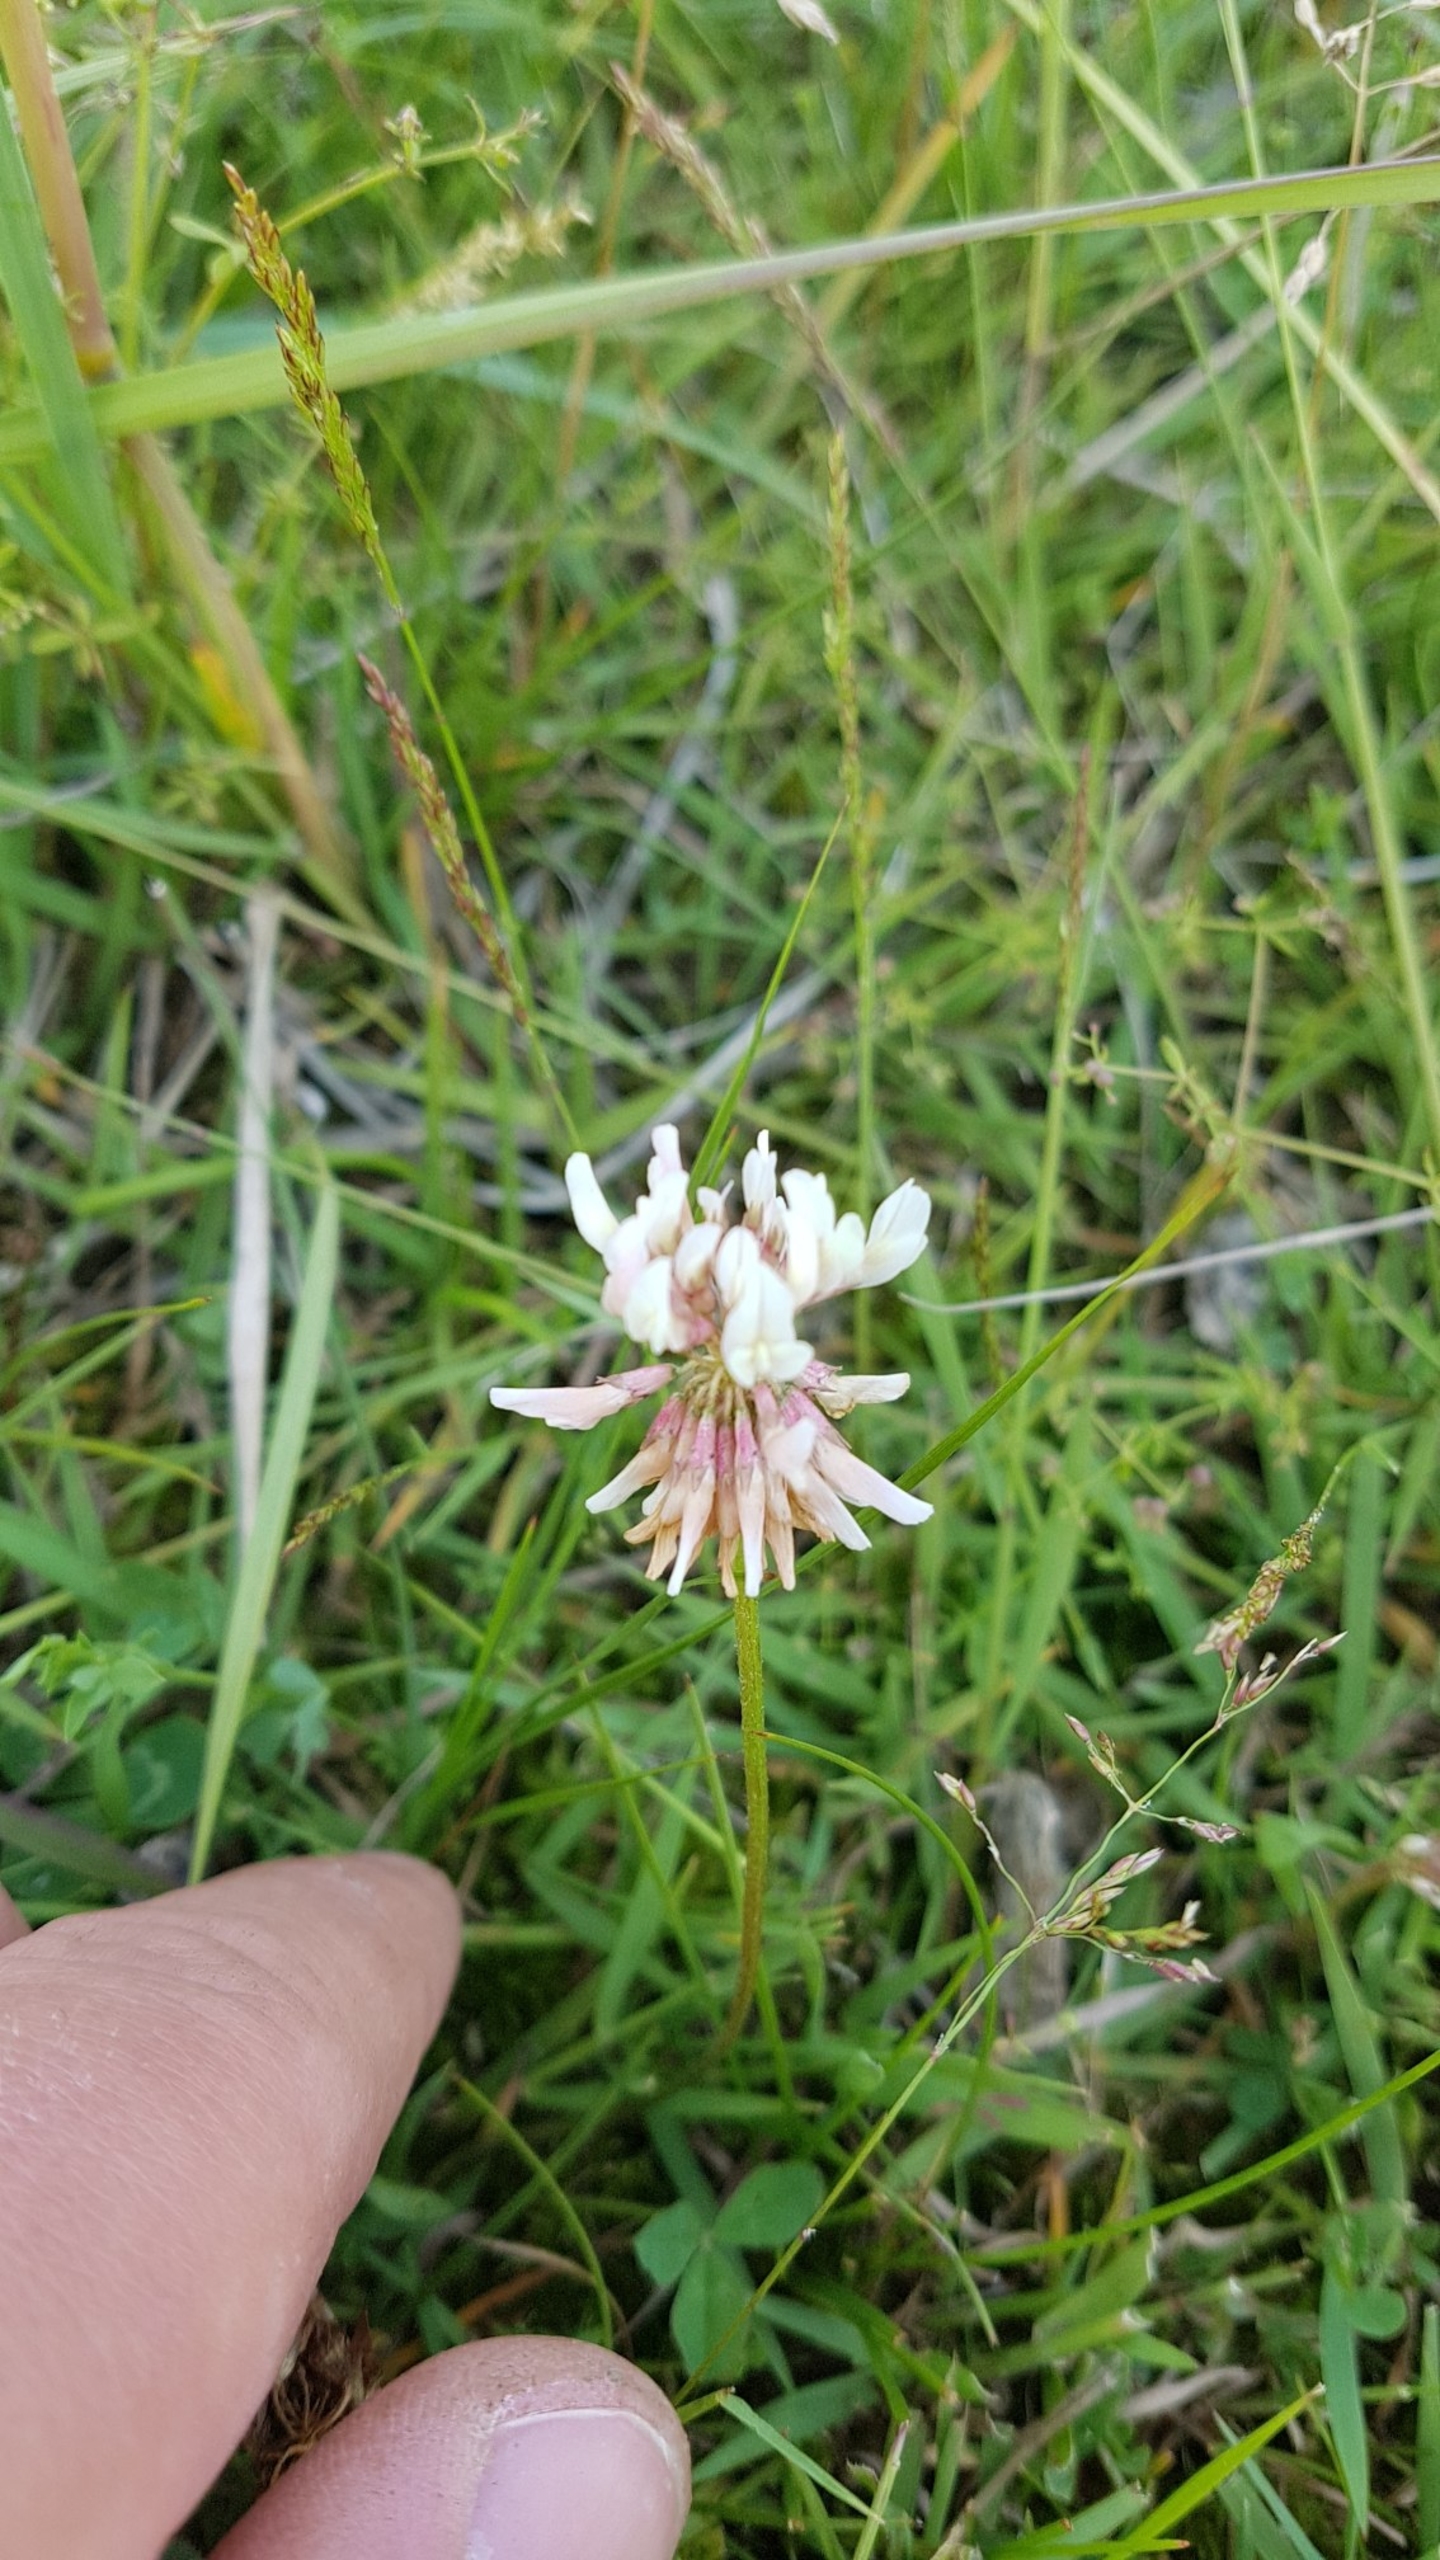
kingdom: Plantae
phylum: Tracheophyta
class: Magnoliopsida
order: Fabales
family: Fabaceae
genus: Trifolium
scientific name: Trifolium repens
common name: Hvid-kløver
